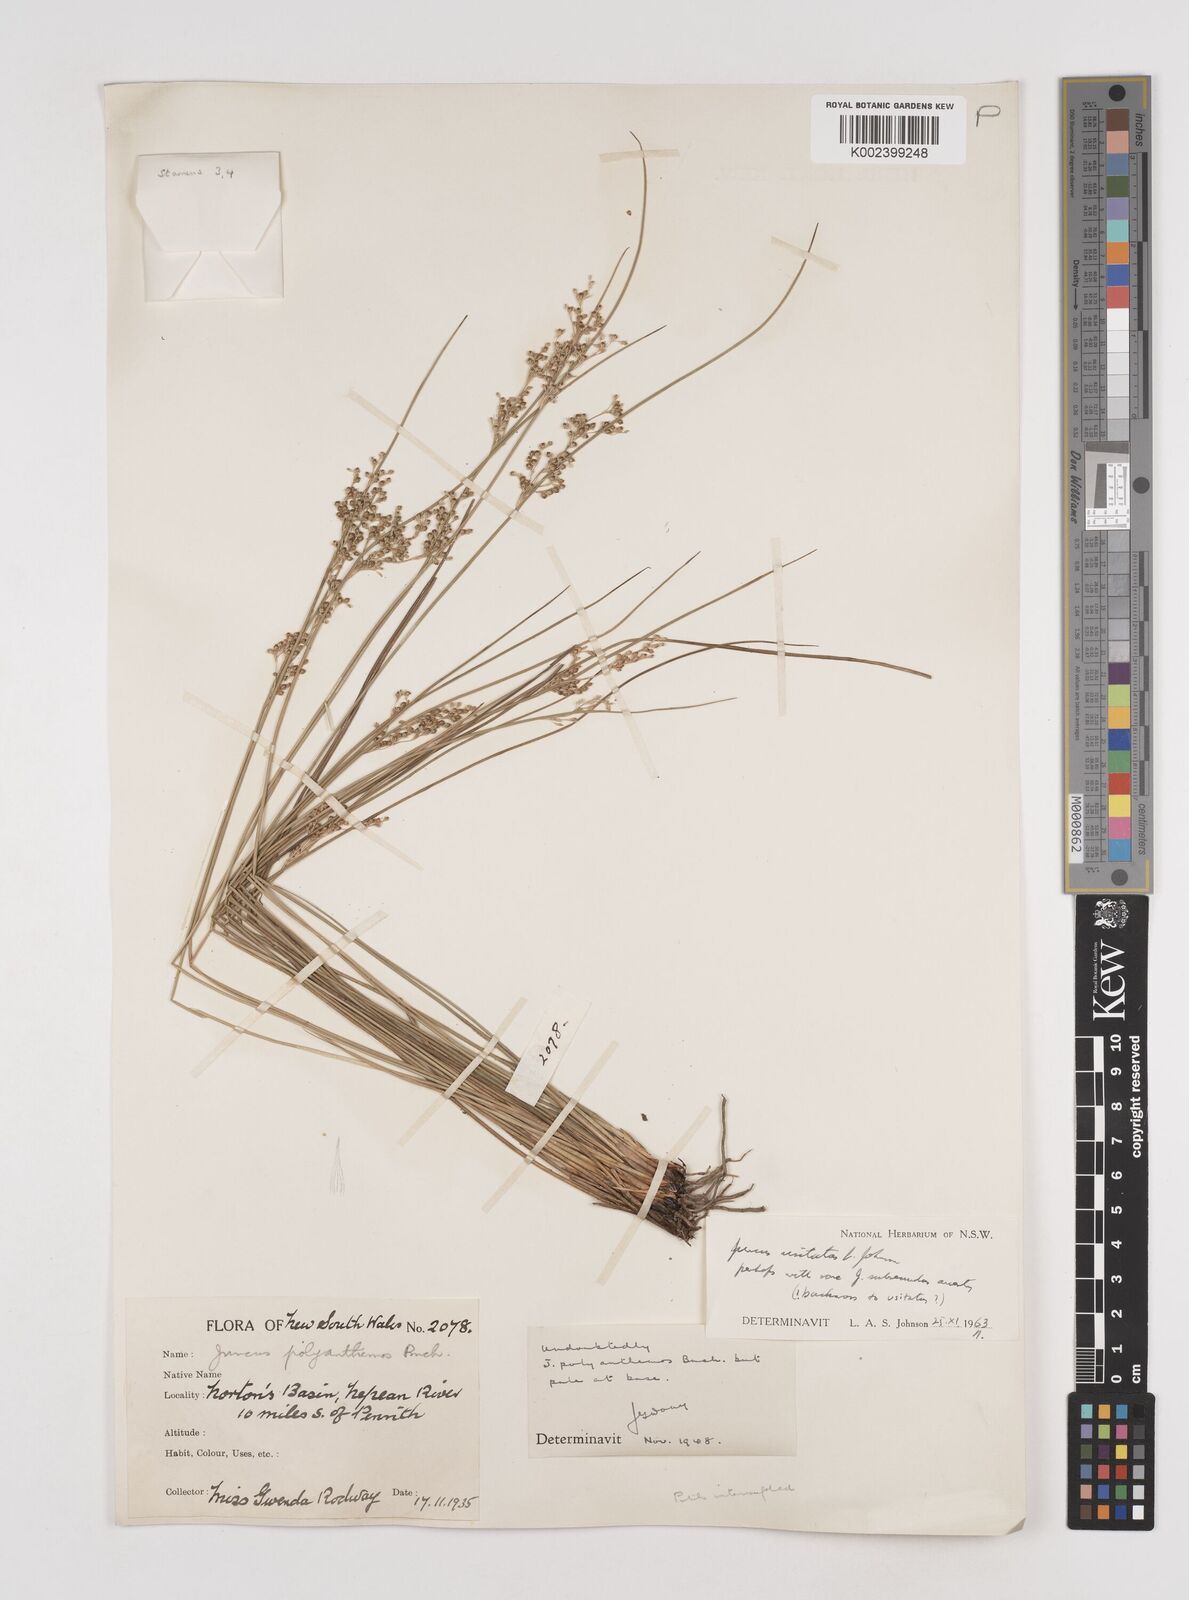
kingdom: Plantae
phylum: Tracheophyta
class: Liliopsida
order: Poales
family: Juncaceae
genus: Juncus
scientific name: Juncus usitatus
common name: Rush
